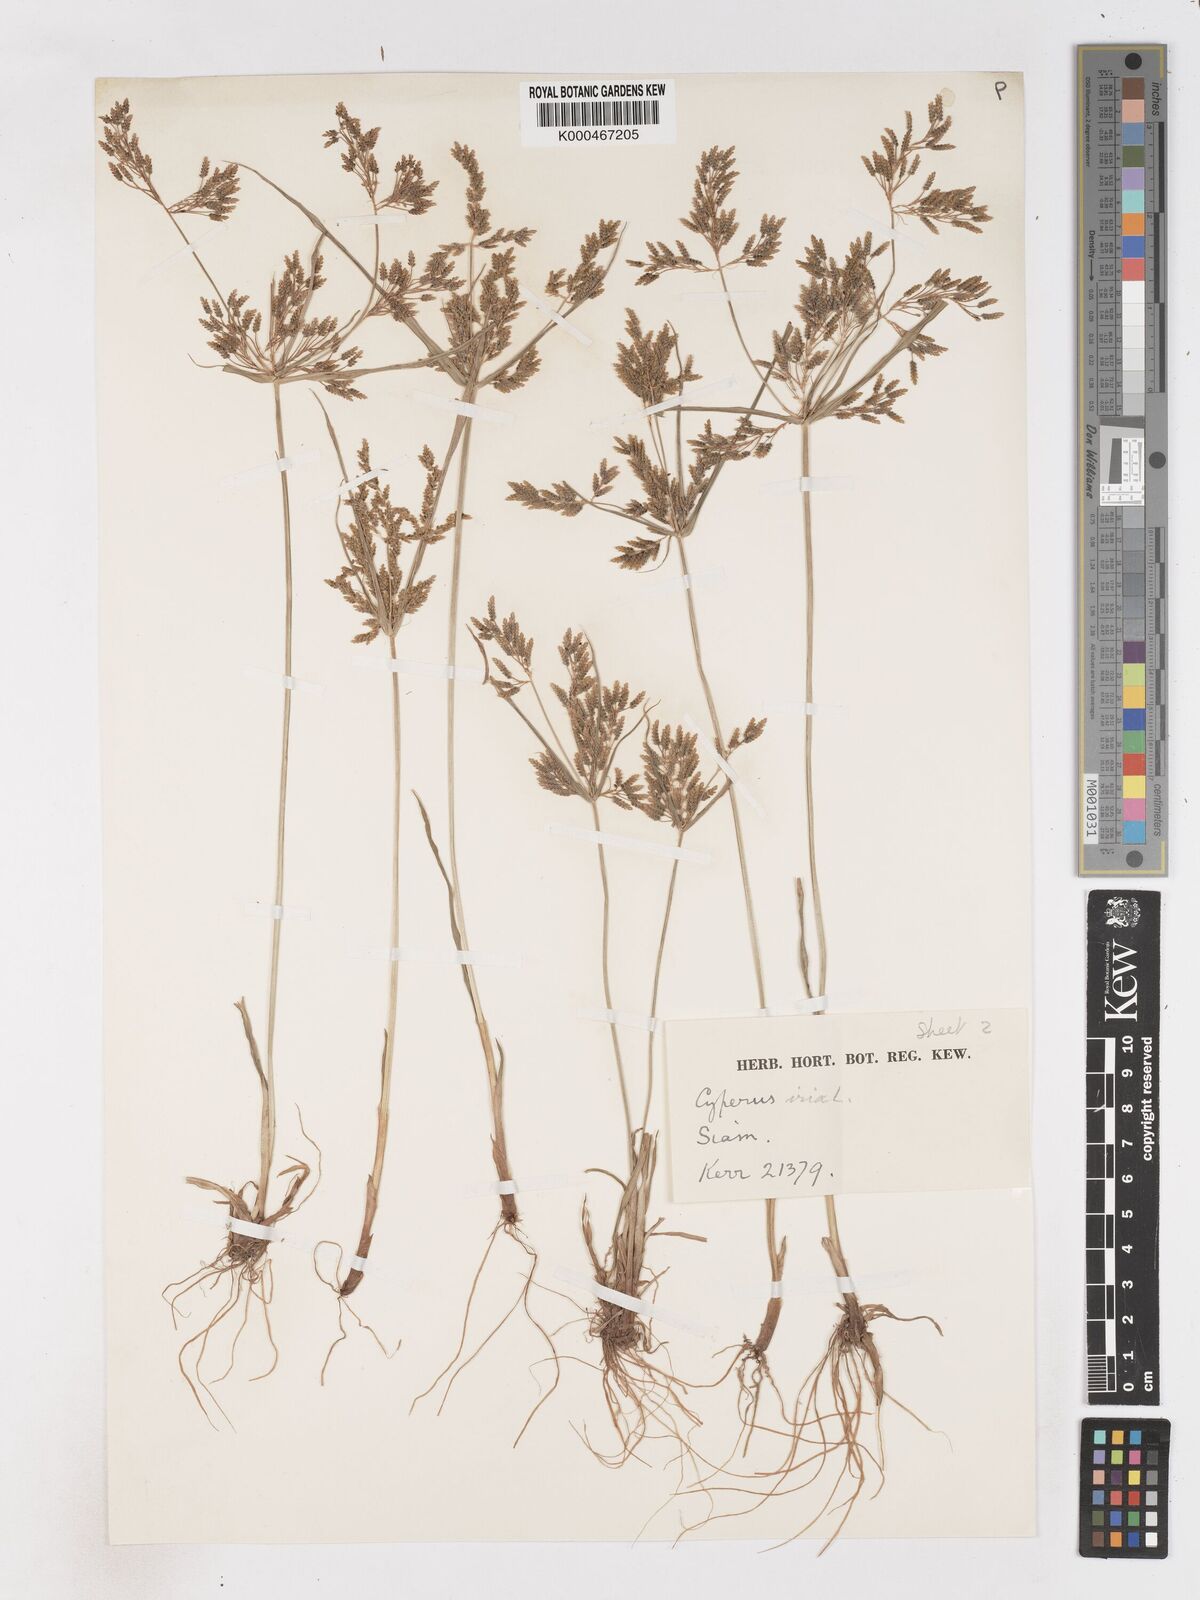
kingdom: Plantae
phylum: Tracheophyta
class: Liliopsida
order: Poales
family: Cyperaceae
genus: Cyperus
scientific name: Cyperus iria
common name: Ricefield flatsedge
